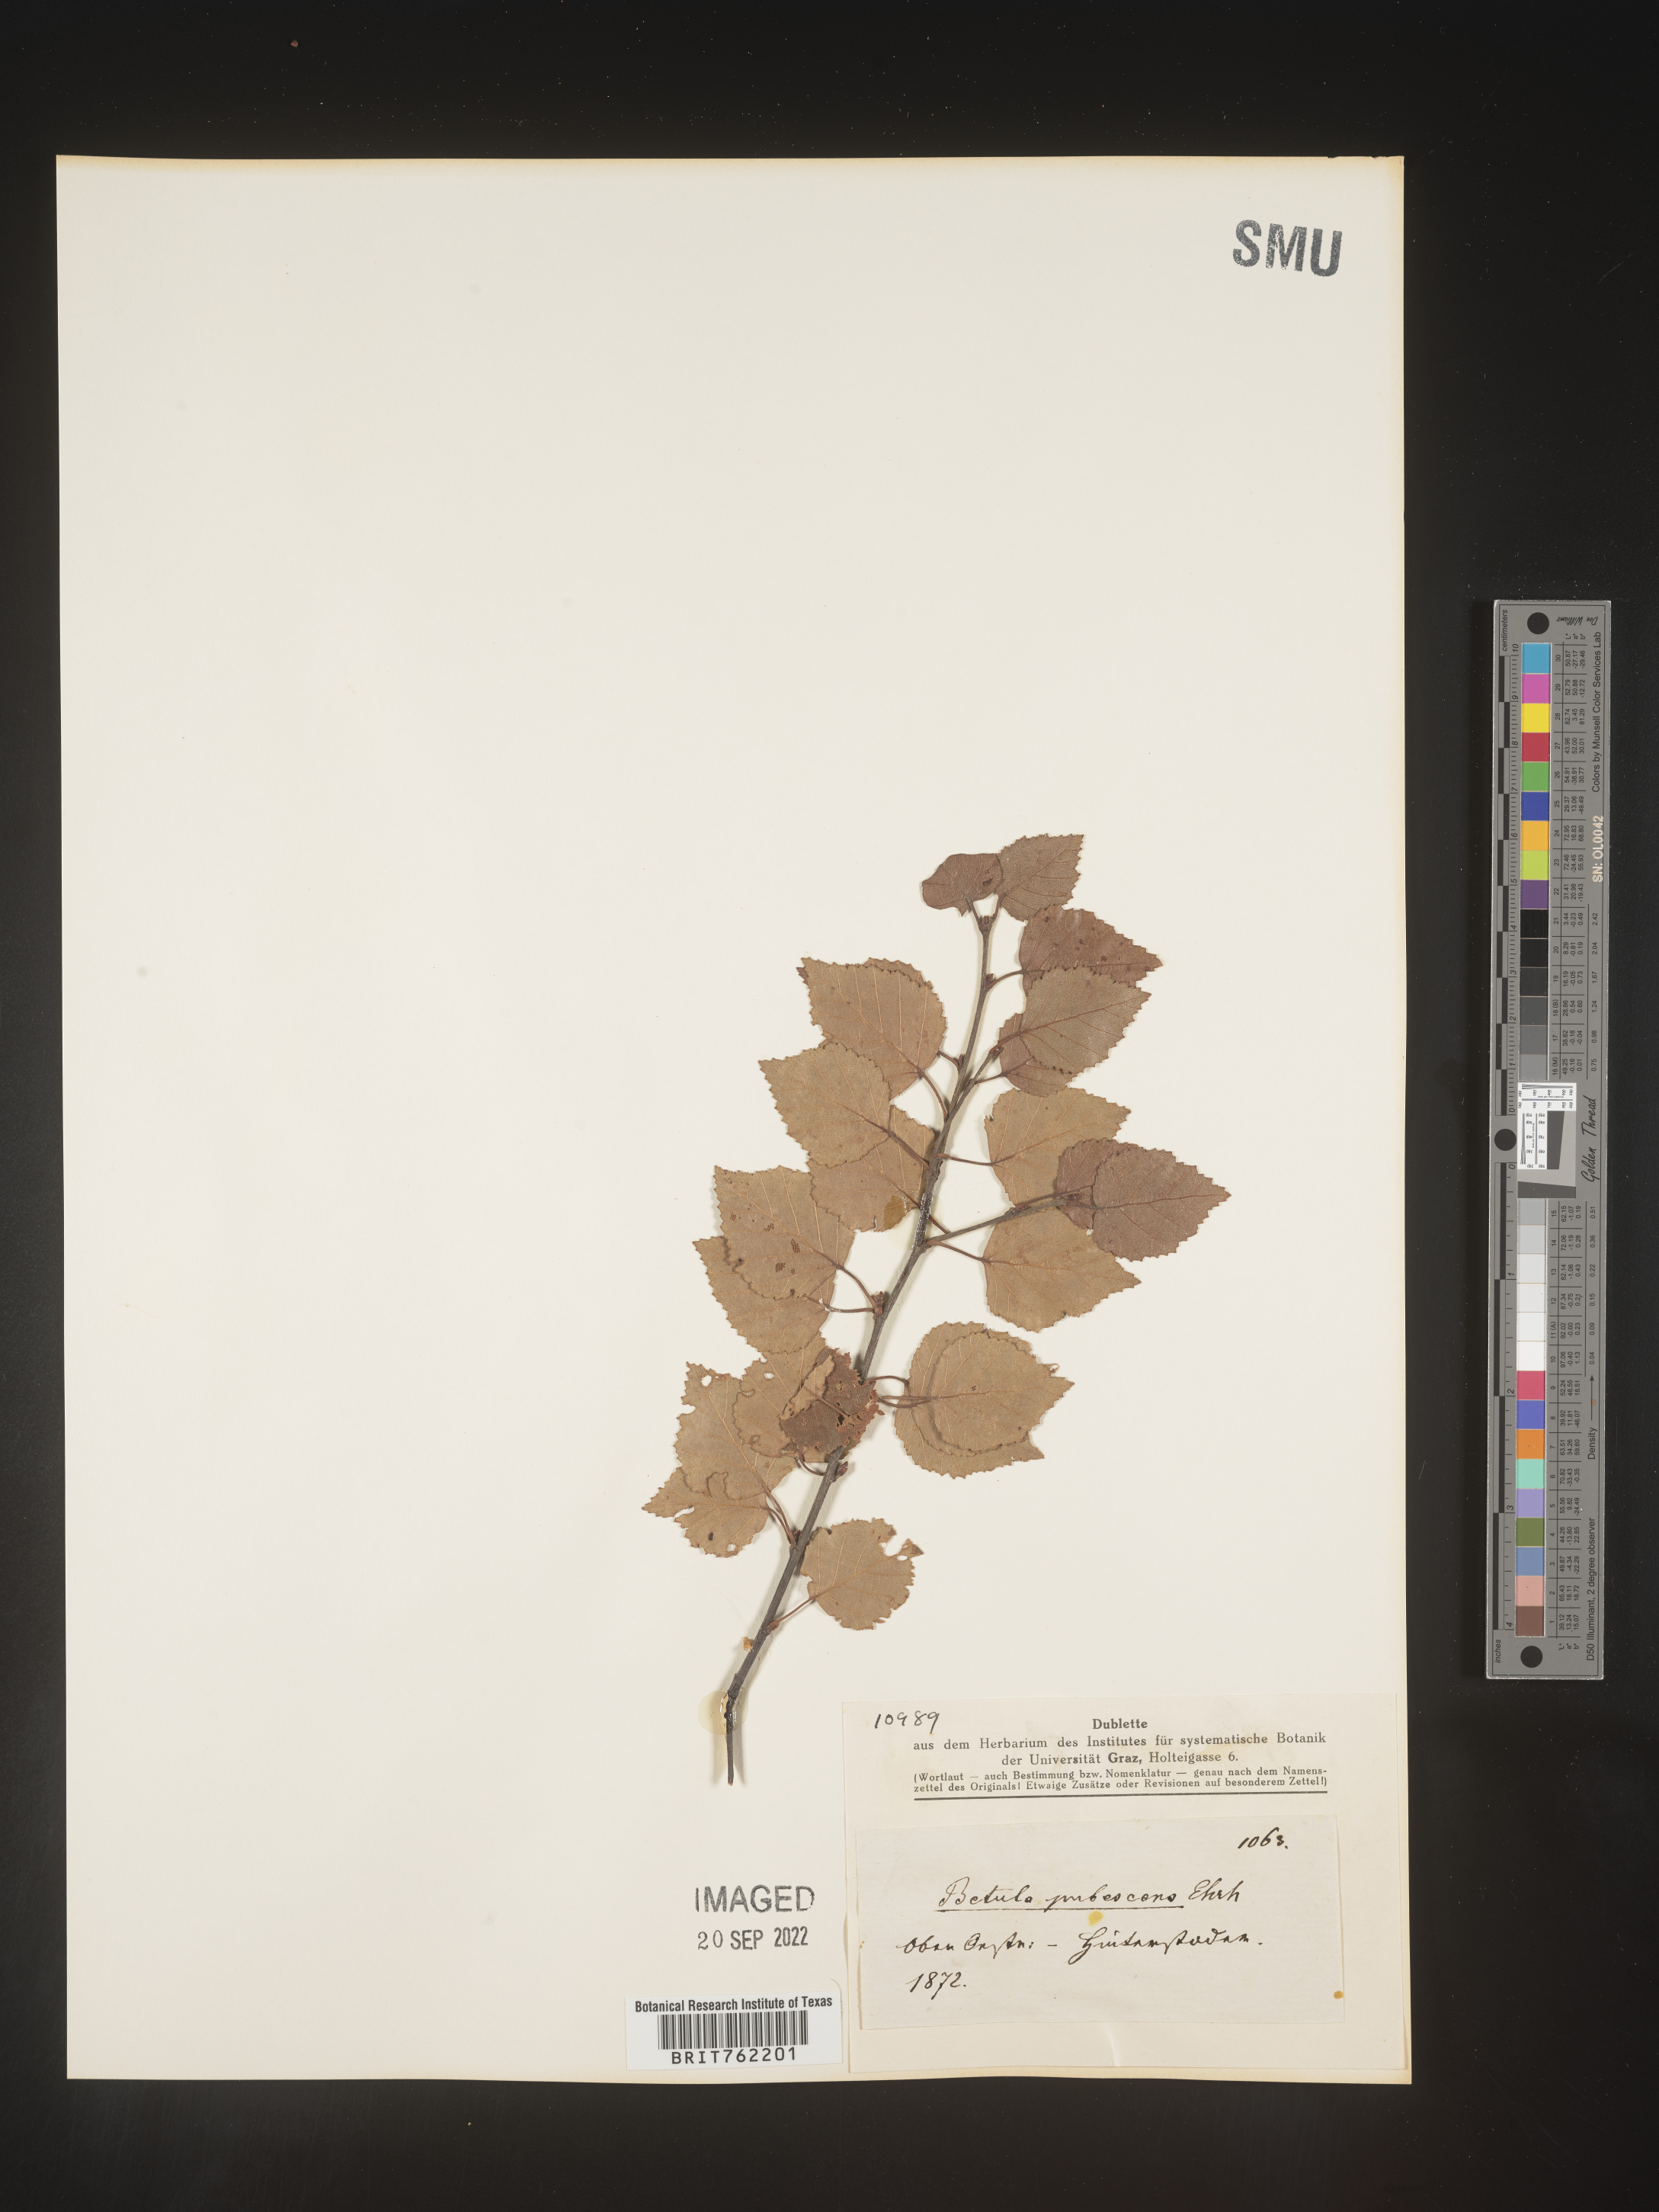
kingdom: Plantae
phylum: Tracheophyta
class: Magnoliopsida
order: Fagales
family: Betulaceae
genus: Betula
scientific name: Betula
